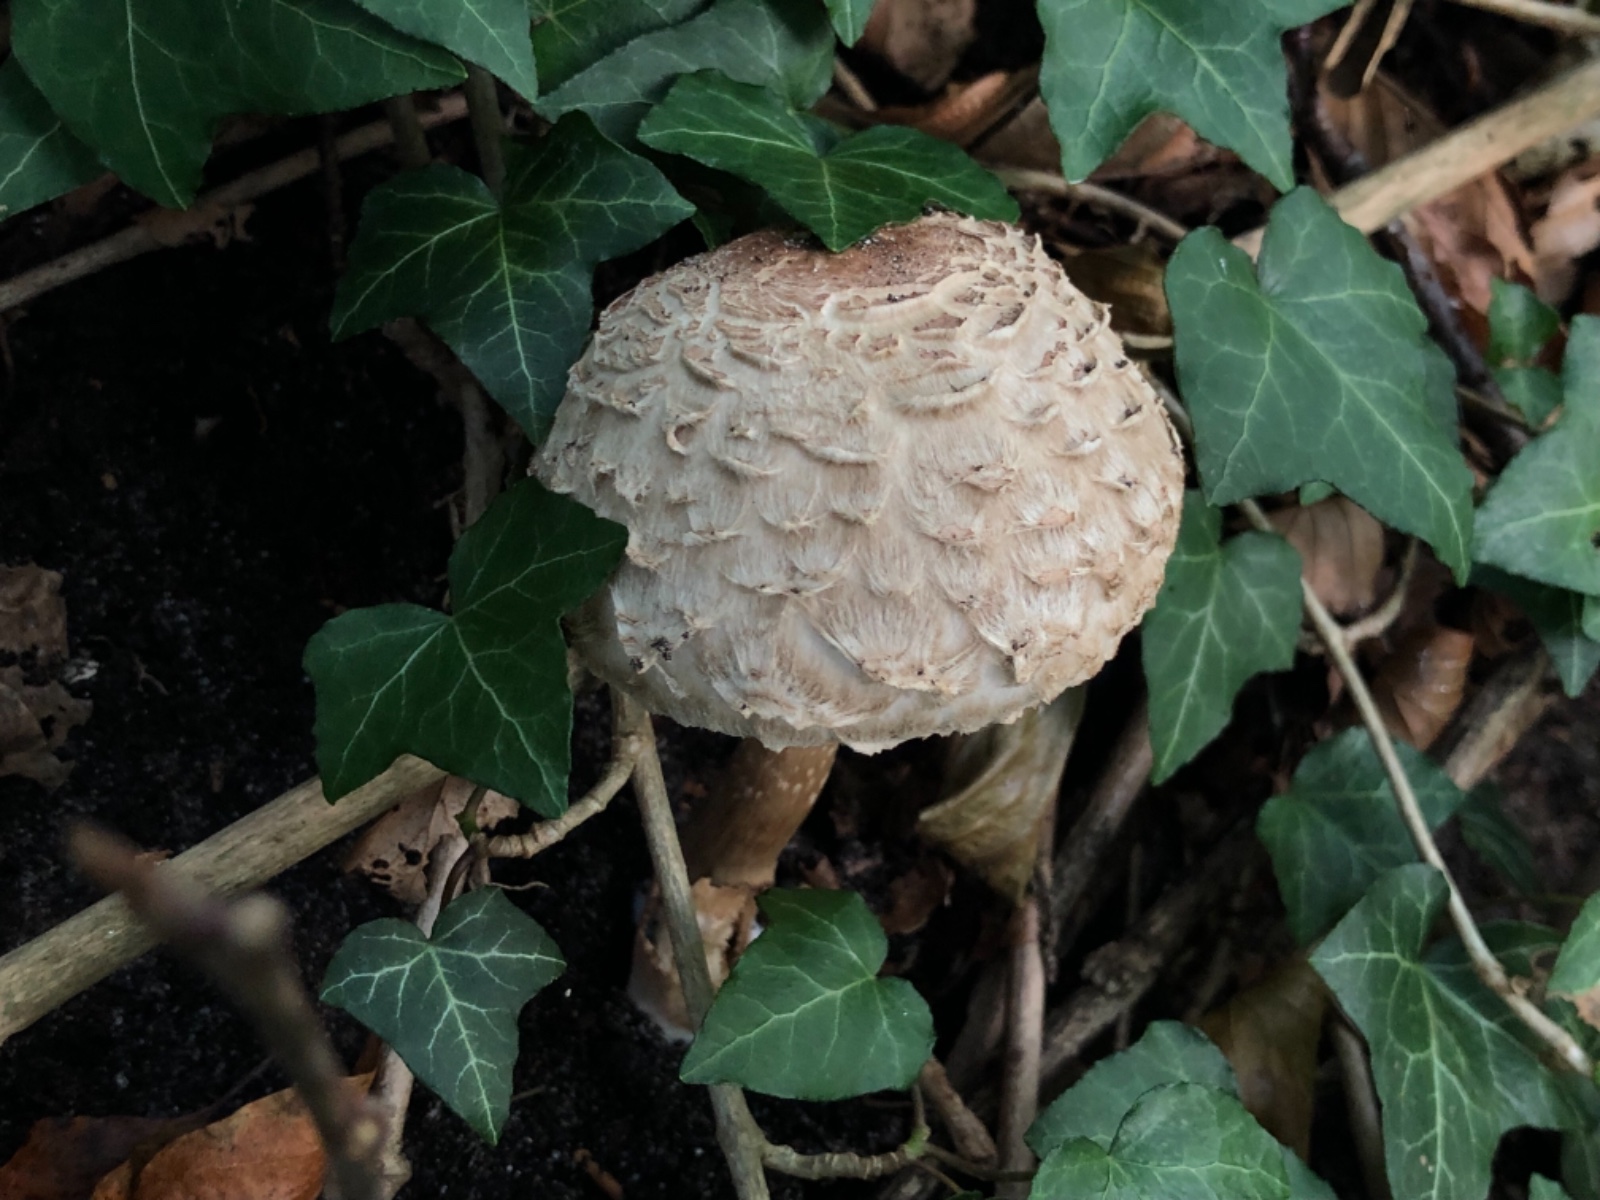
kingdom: Fungi
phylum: Basidiomycota
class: Agaricomycetes
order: Agaricales
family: Agaricaceae
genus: Chlorophyllum
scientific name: Chlorophyllum olivieri
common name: almindelig rabarberhat
